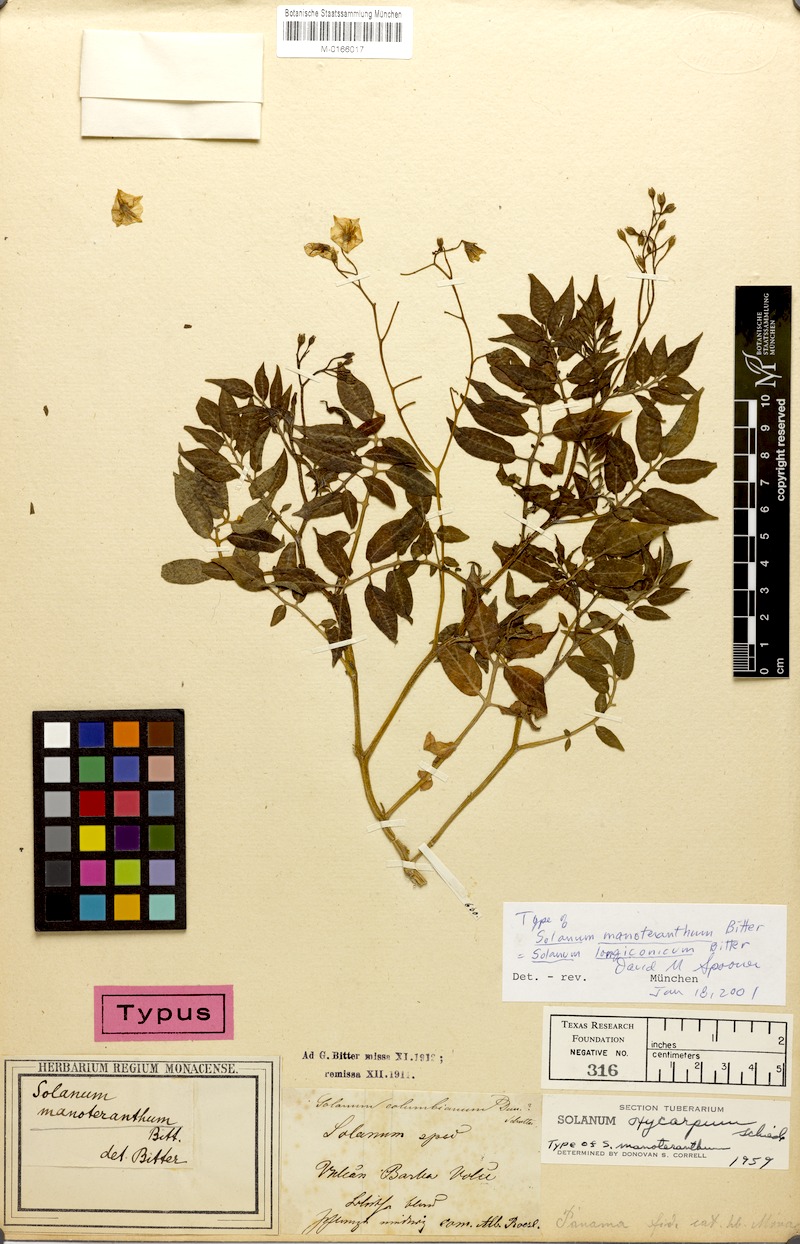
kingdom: Plantae
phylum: Tracheophyta
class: Magnoliopsida
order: Solanales
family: Solanaceae
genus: Solanum
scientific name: Solanum longiconicum
